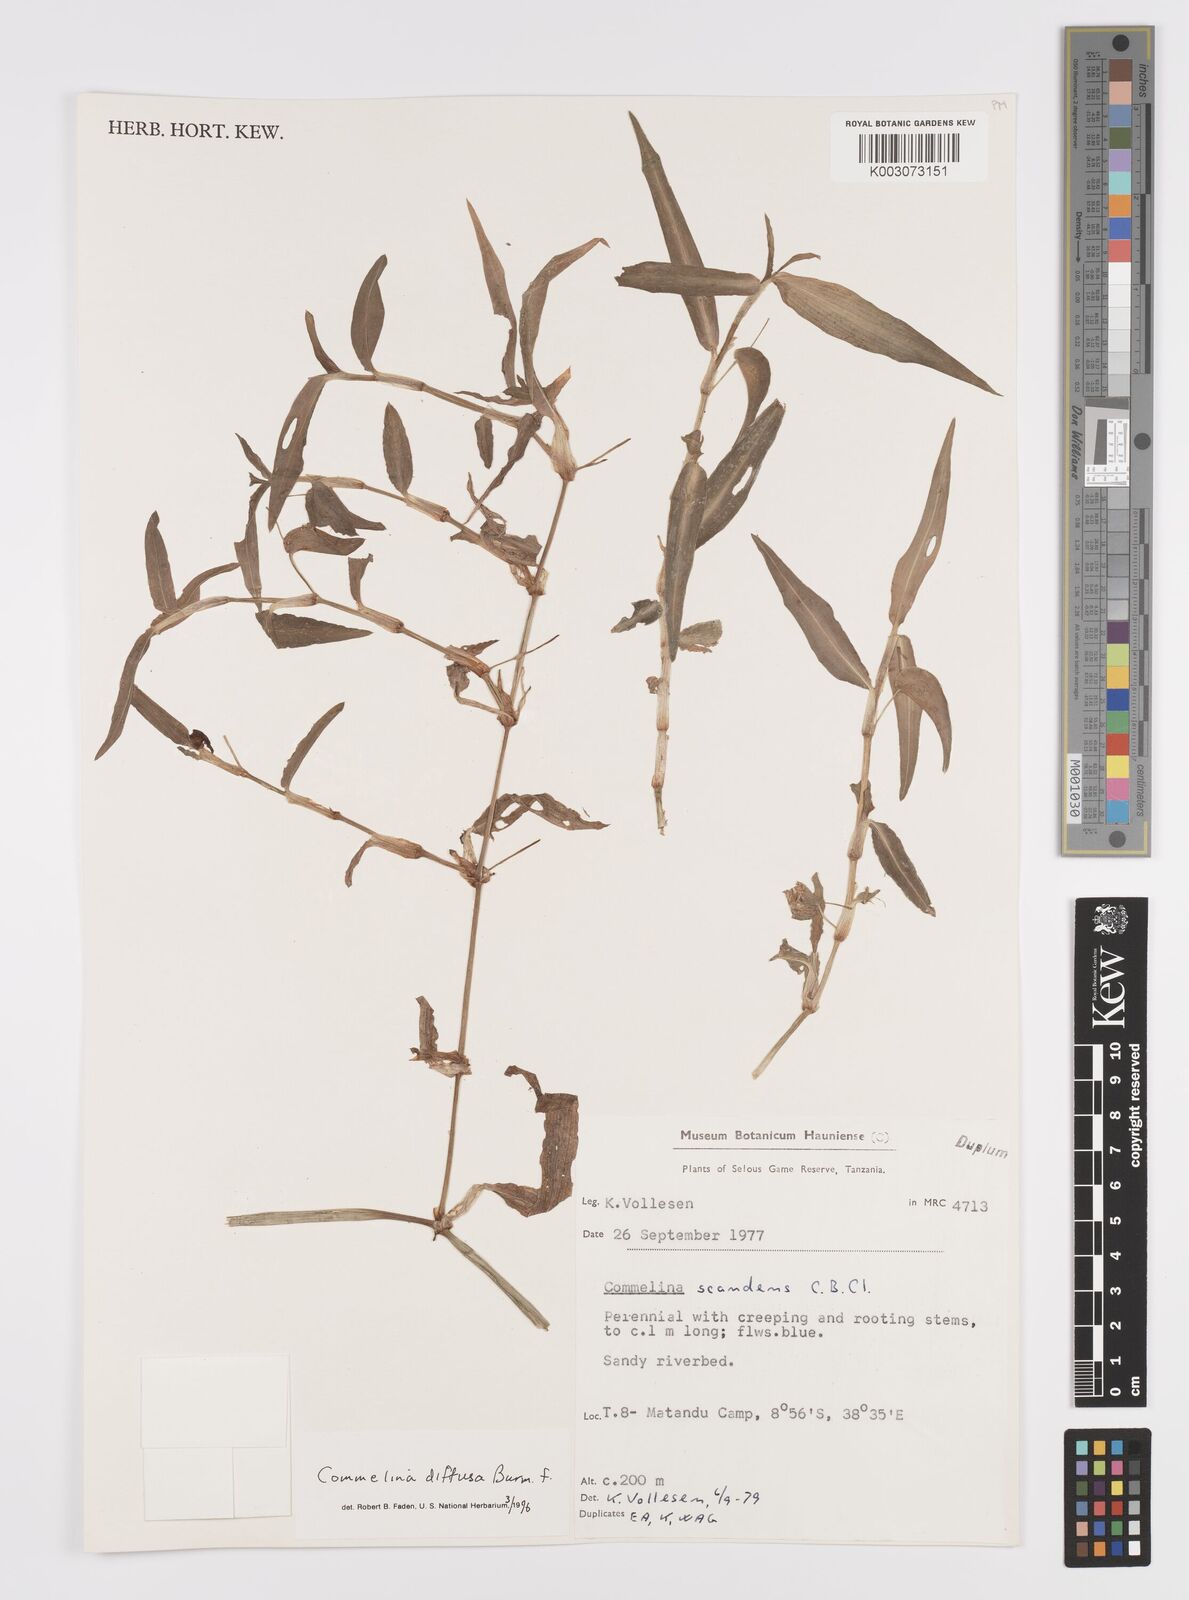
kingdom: Plantae
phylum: Tracheophyta
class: Liliopsida
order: Commelinales
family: Commelinaceae
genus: Commelina
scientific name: Commelina diffusa
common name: Climbing dayflower
